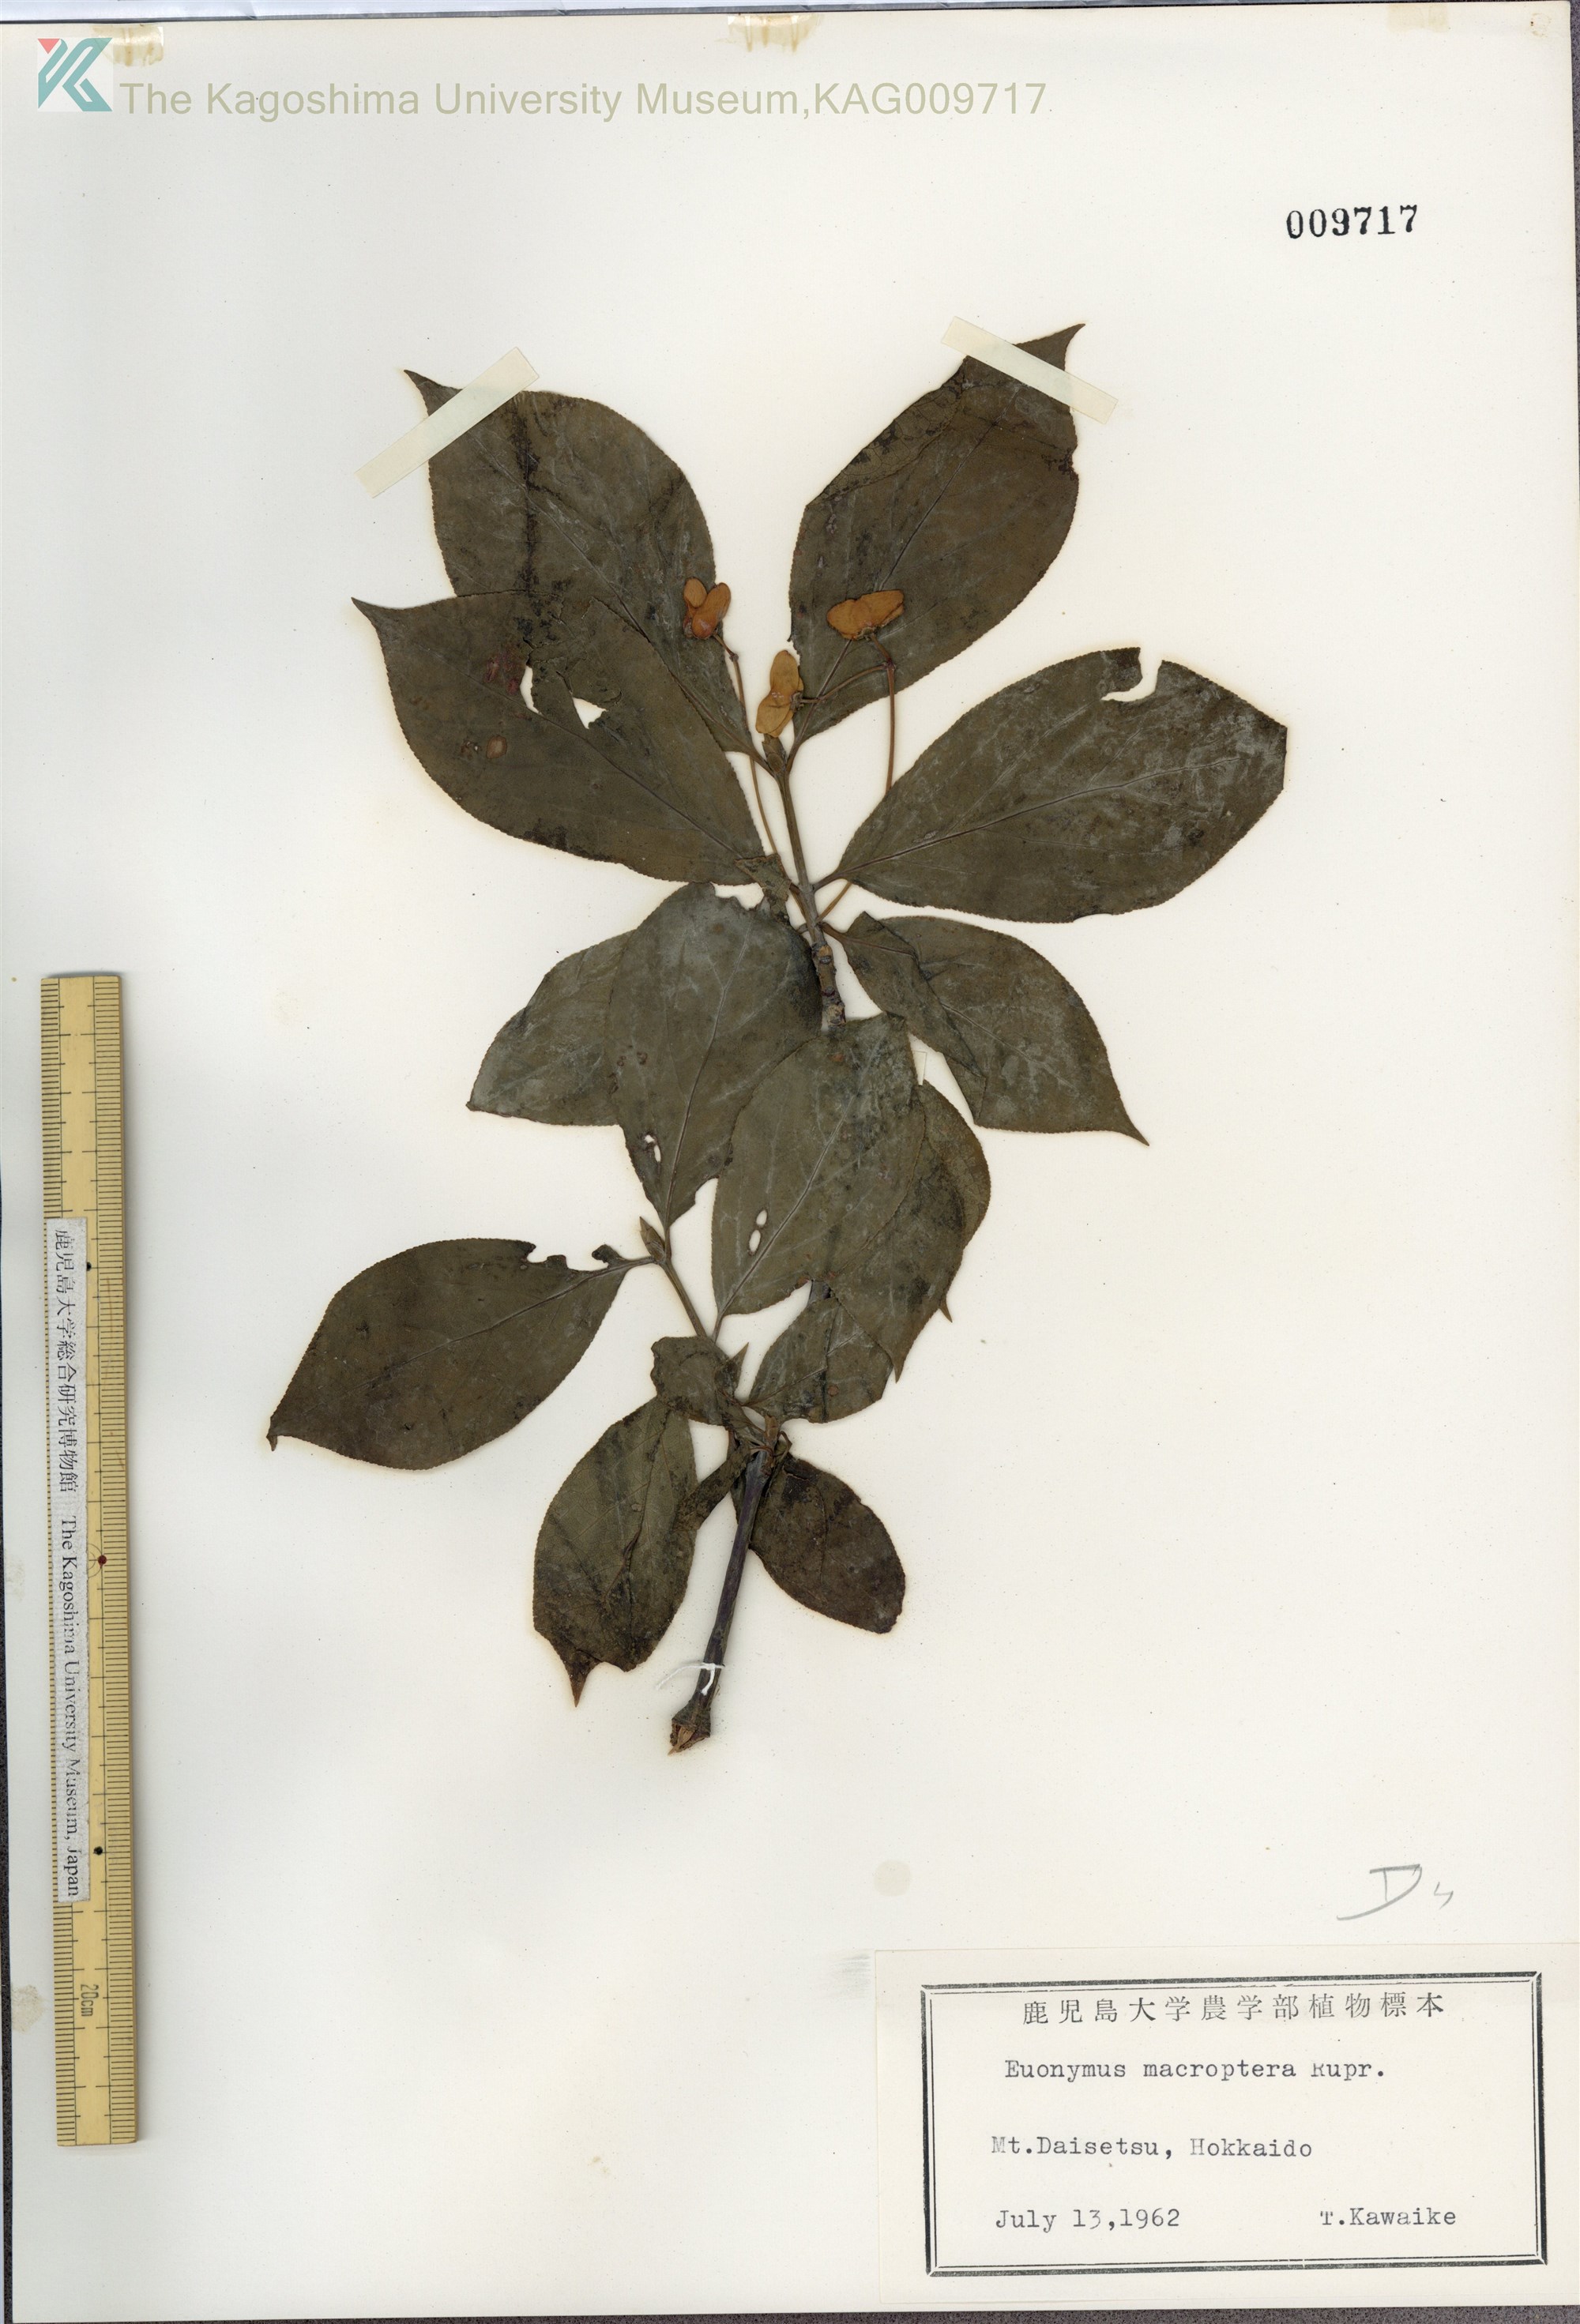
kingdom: Plantae
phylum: Tracheophyta
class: Magnoliopsida
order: Celastrales
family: Celastraceae
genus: Euonymus
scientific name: Euonymus macropterus
